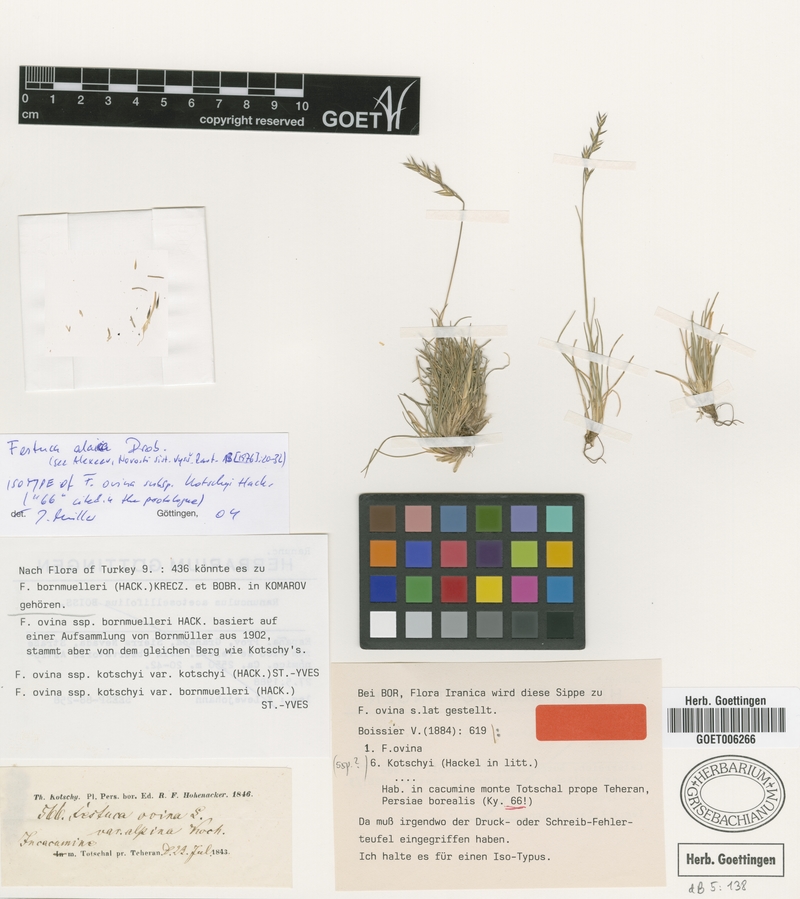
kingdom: Plantae
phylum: Tracheophyta
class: Liliopsida
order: Poales
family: Poaceae
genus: Festuca
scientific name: Festuca alaica
